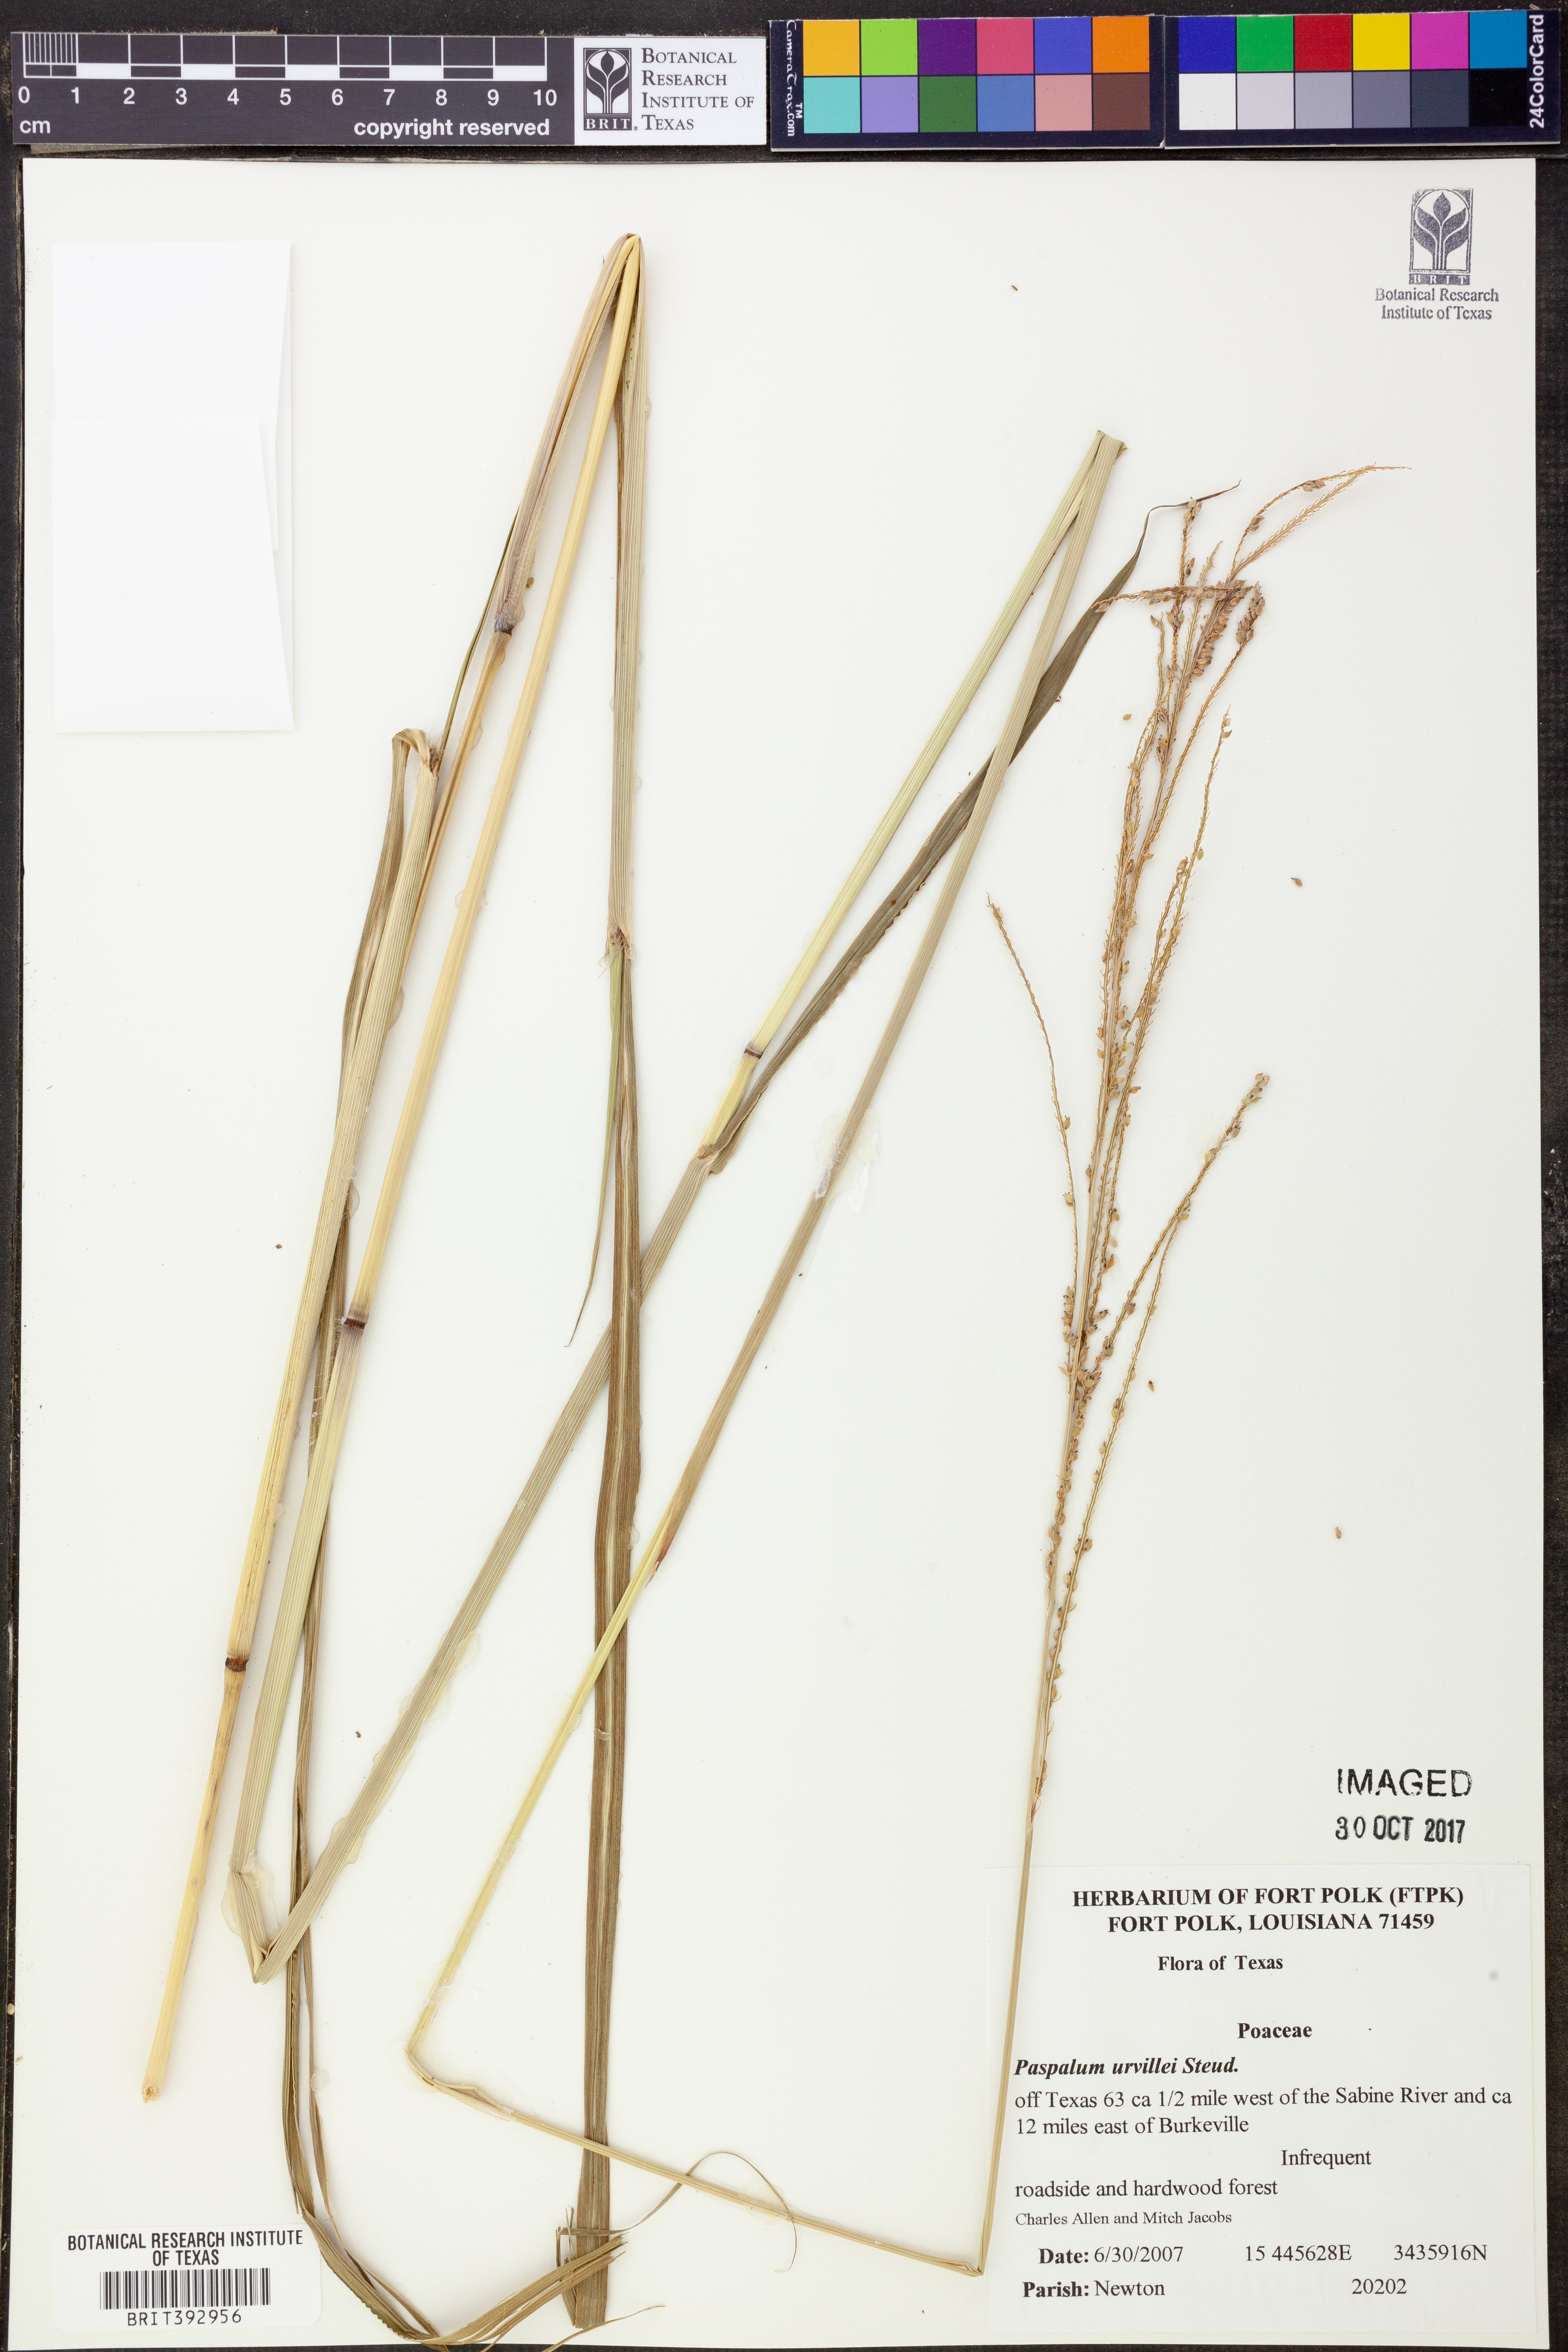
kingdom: Plantae
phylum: Tracheophyta
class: Liliopsida
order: Poales
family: Poaceae
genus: Paspalum
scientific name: Paspalum urvillei
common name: Vasey's grass
